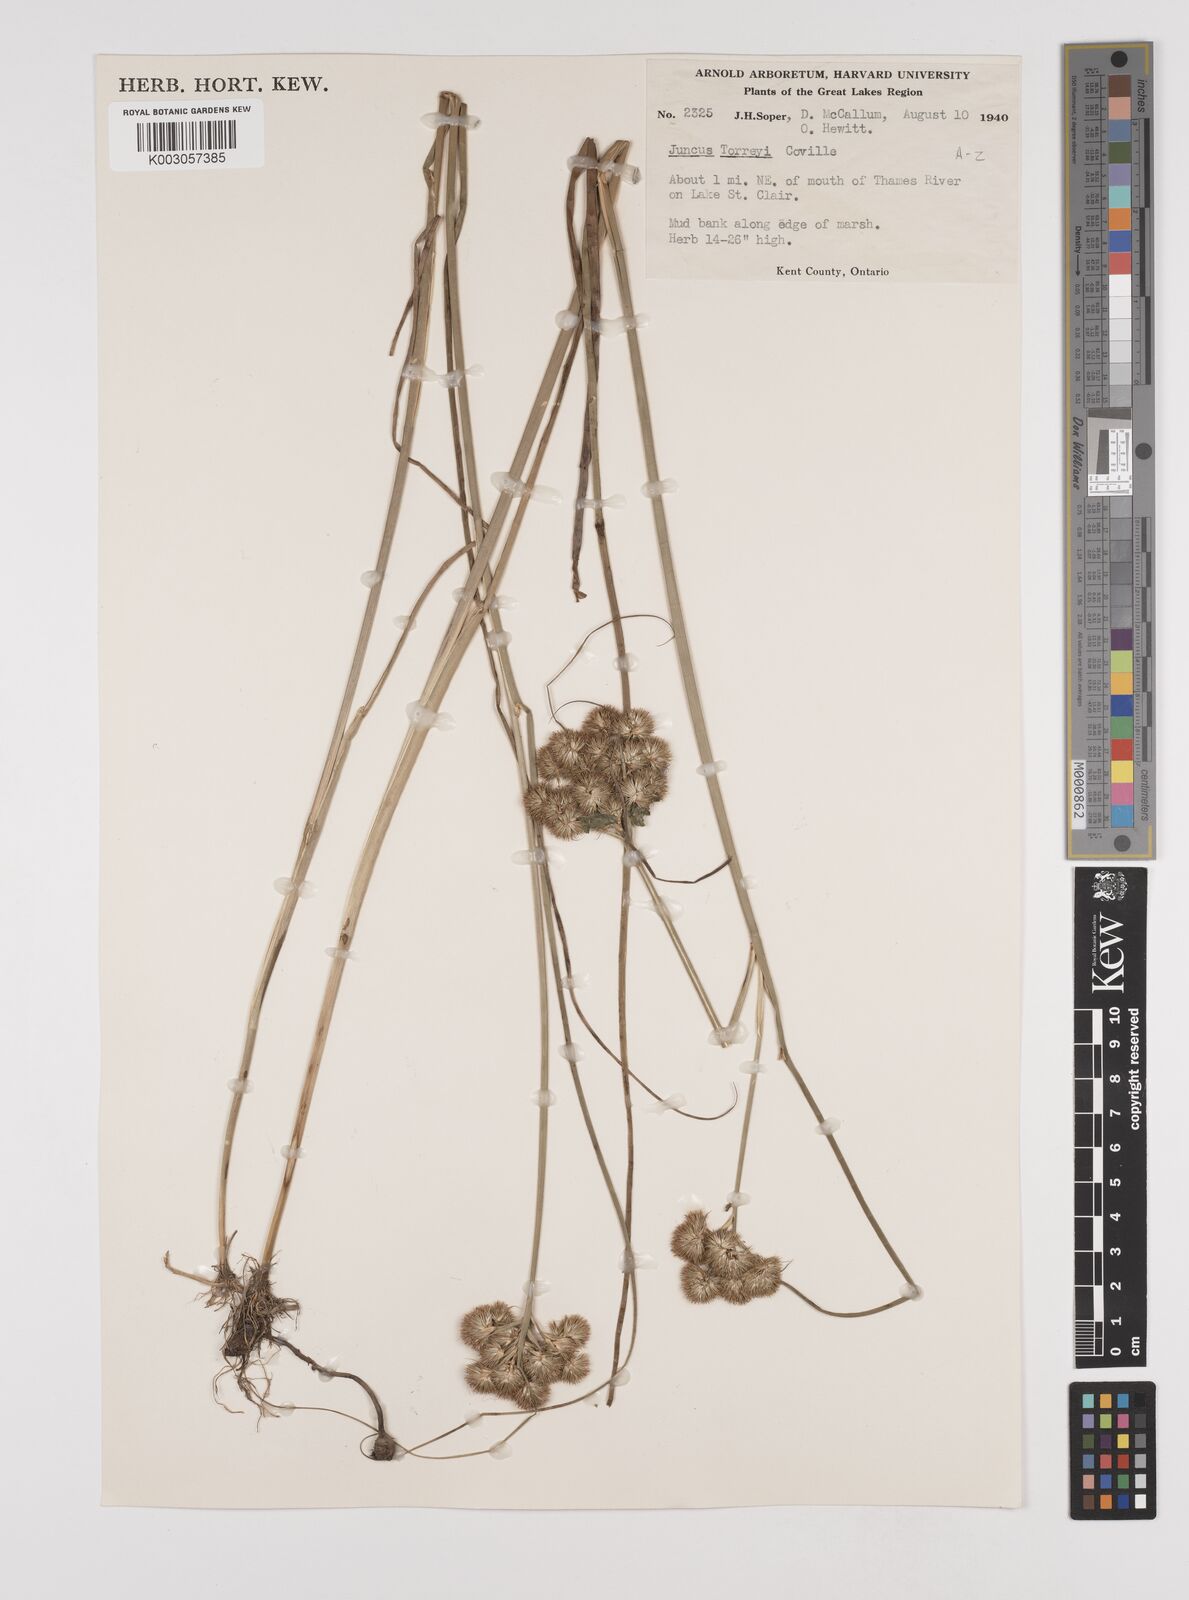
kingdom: Plantae
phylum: Tracheophyta
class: Liliopsida
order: Poales
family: Juncaceae
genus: Juncus
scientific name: Juncus torreyi
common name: Torrey's rush
